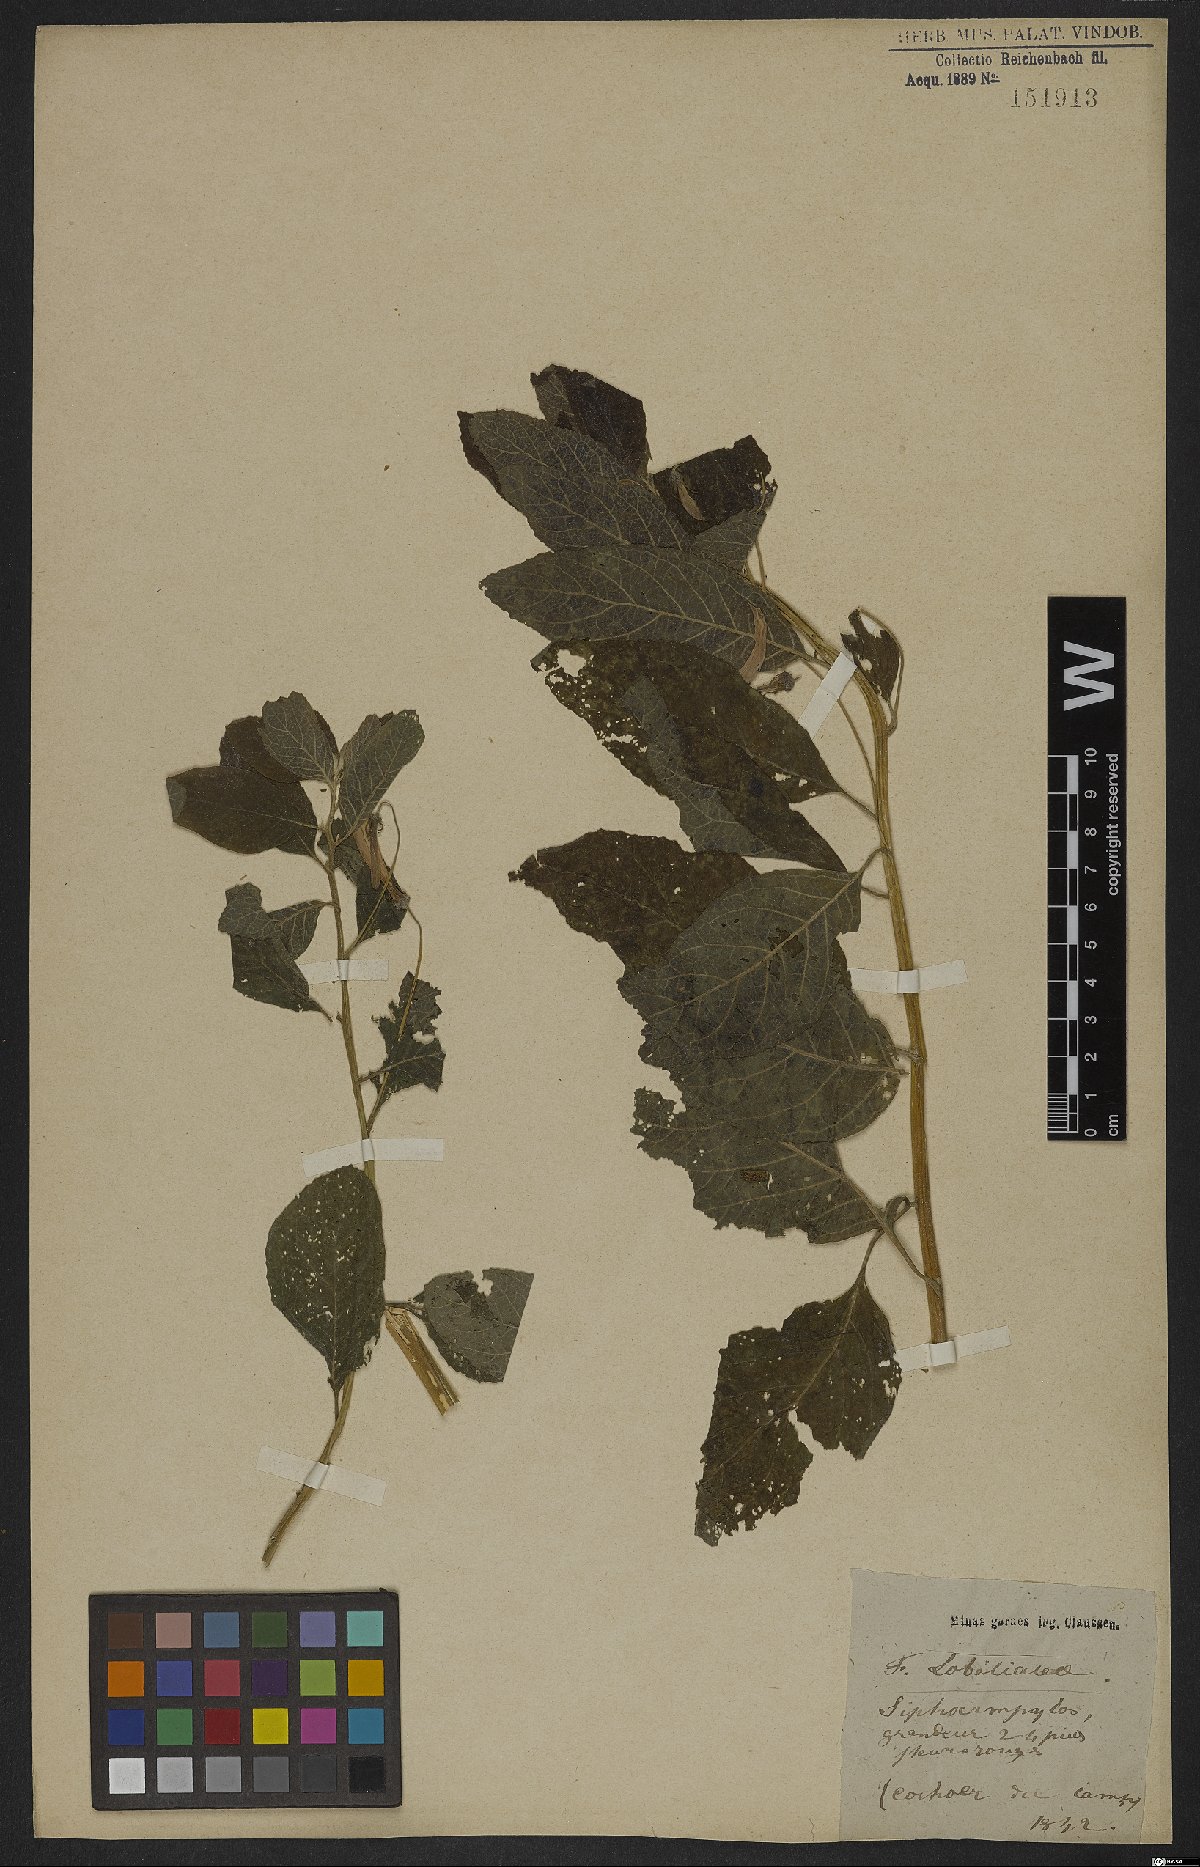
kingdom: Plantae
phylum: Tracheophyta
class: Magnoliopsida
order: Asterales
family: Campanulaceae
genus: Siphocampylus
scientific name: Siphocampylus macropodus
